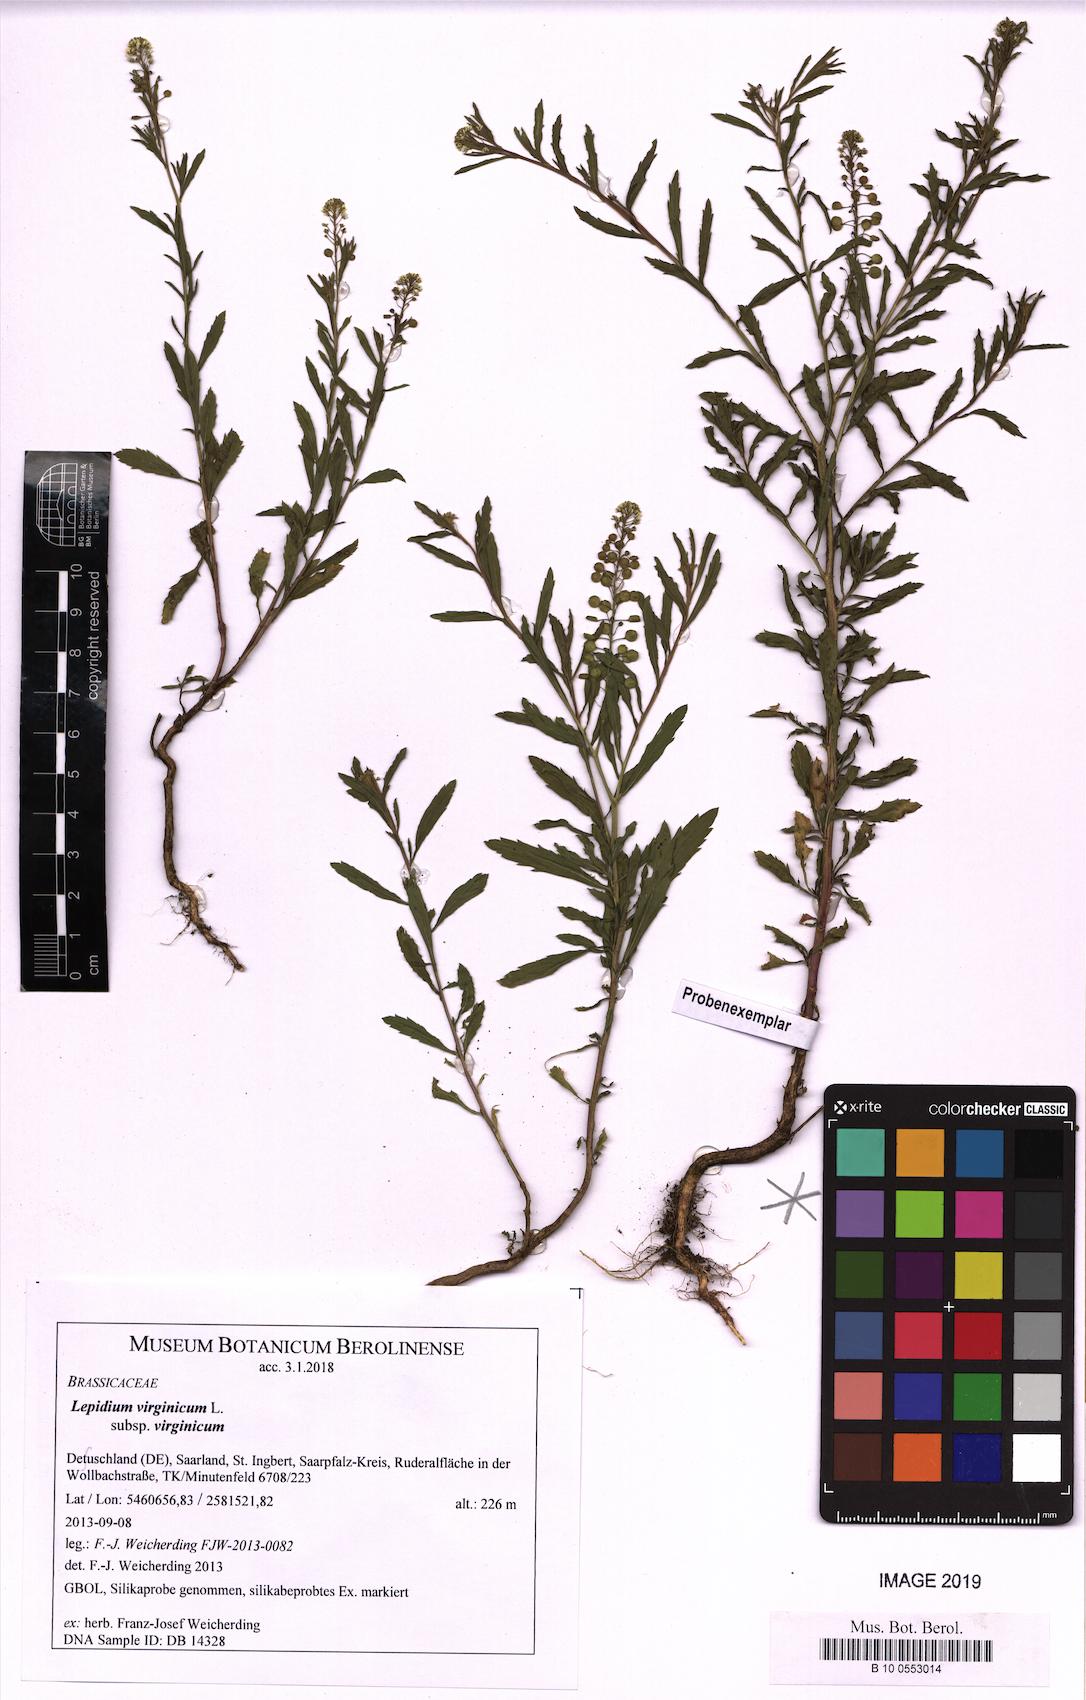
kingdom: Plantae
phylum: Tracheophyta
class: Magnoliopsida
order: Brassicales
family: Brassicaceae
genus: Lepidium
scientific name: Lepidium virginicum
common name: Least pepperwort
